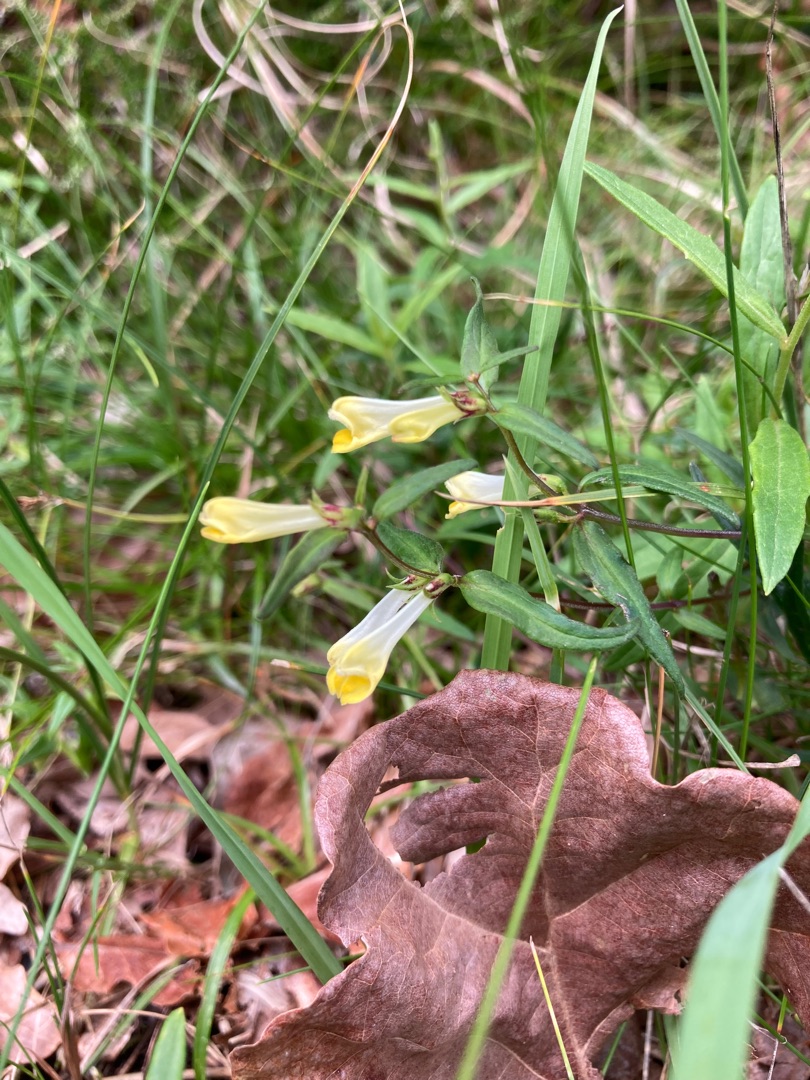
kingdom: Plantae
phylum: Tracheophyta
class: Magnoliopsida
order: Lamiales
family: Orobanchaceae
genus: Melampyrum
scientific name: Melampyrum pratense
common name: Almindelig kohvede
